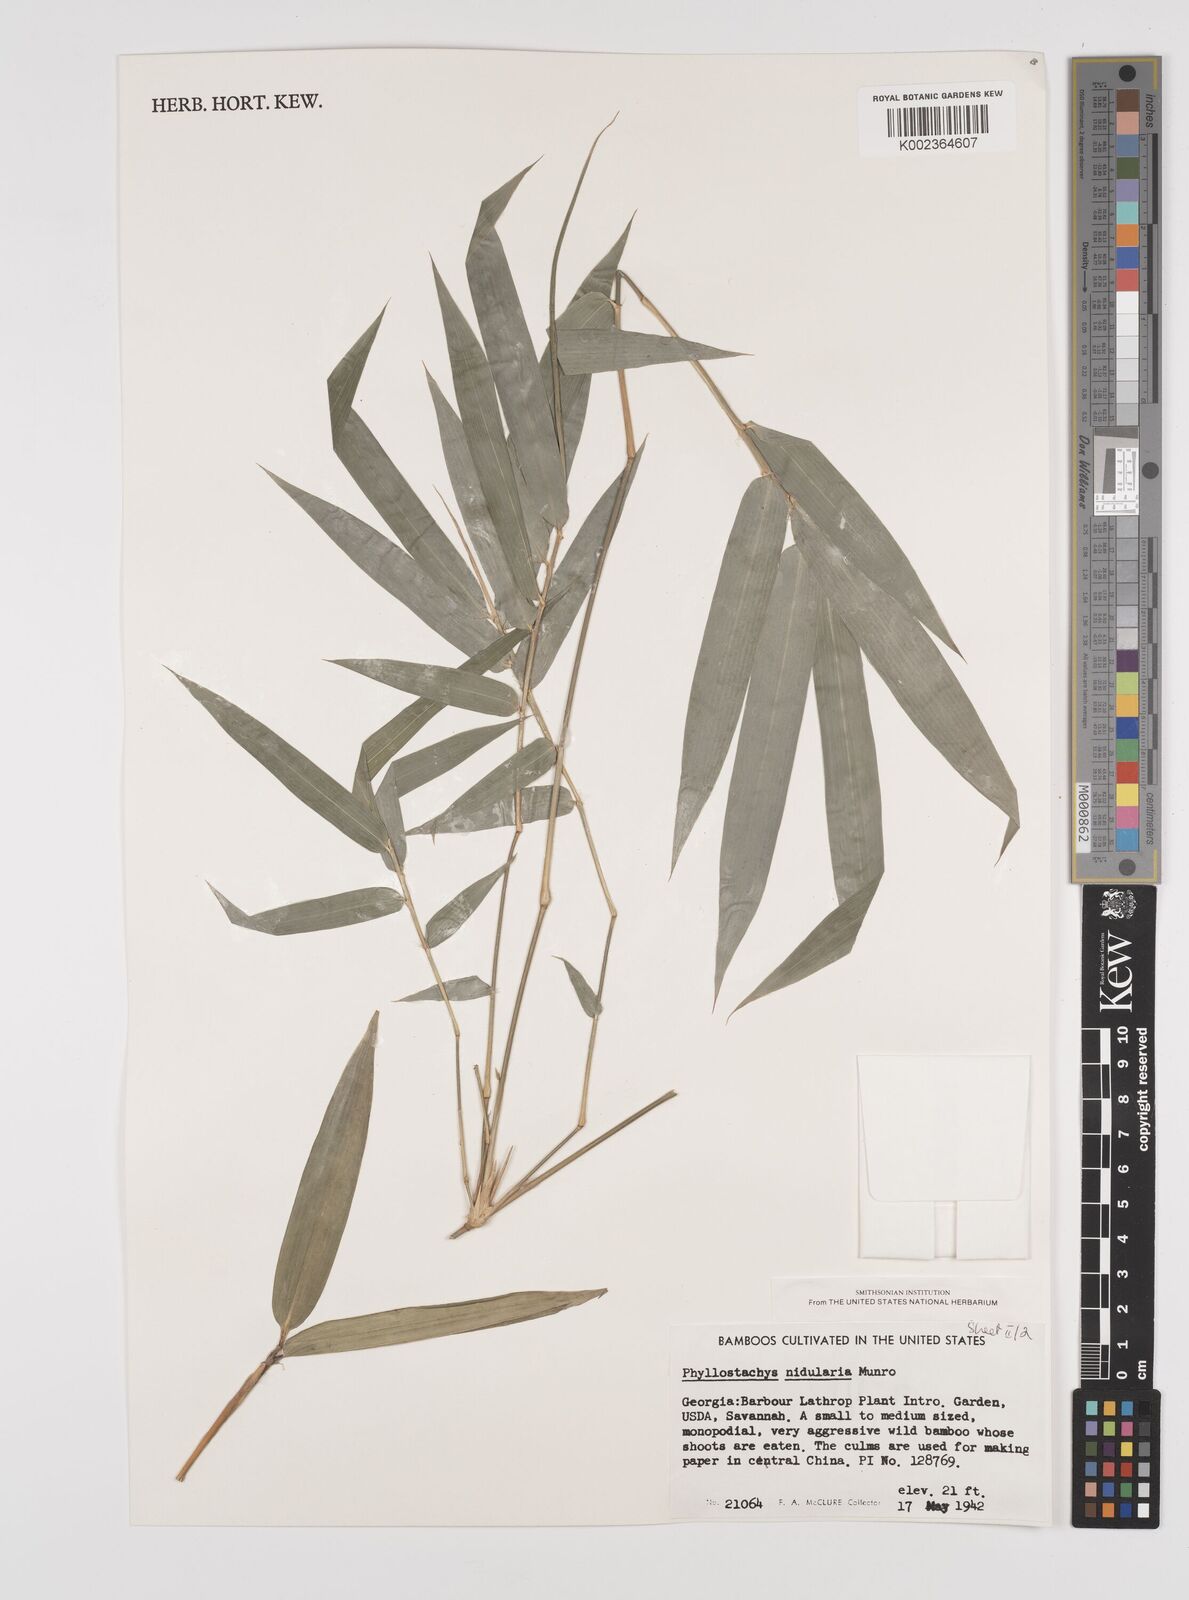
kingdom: Plantae
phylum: Tracheophyta
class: Liliopsida
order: Poales
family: Poaceae
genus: Phyllostachys
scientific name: Phyllostachys nidularia
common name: Broom bamboo
